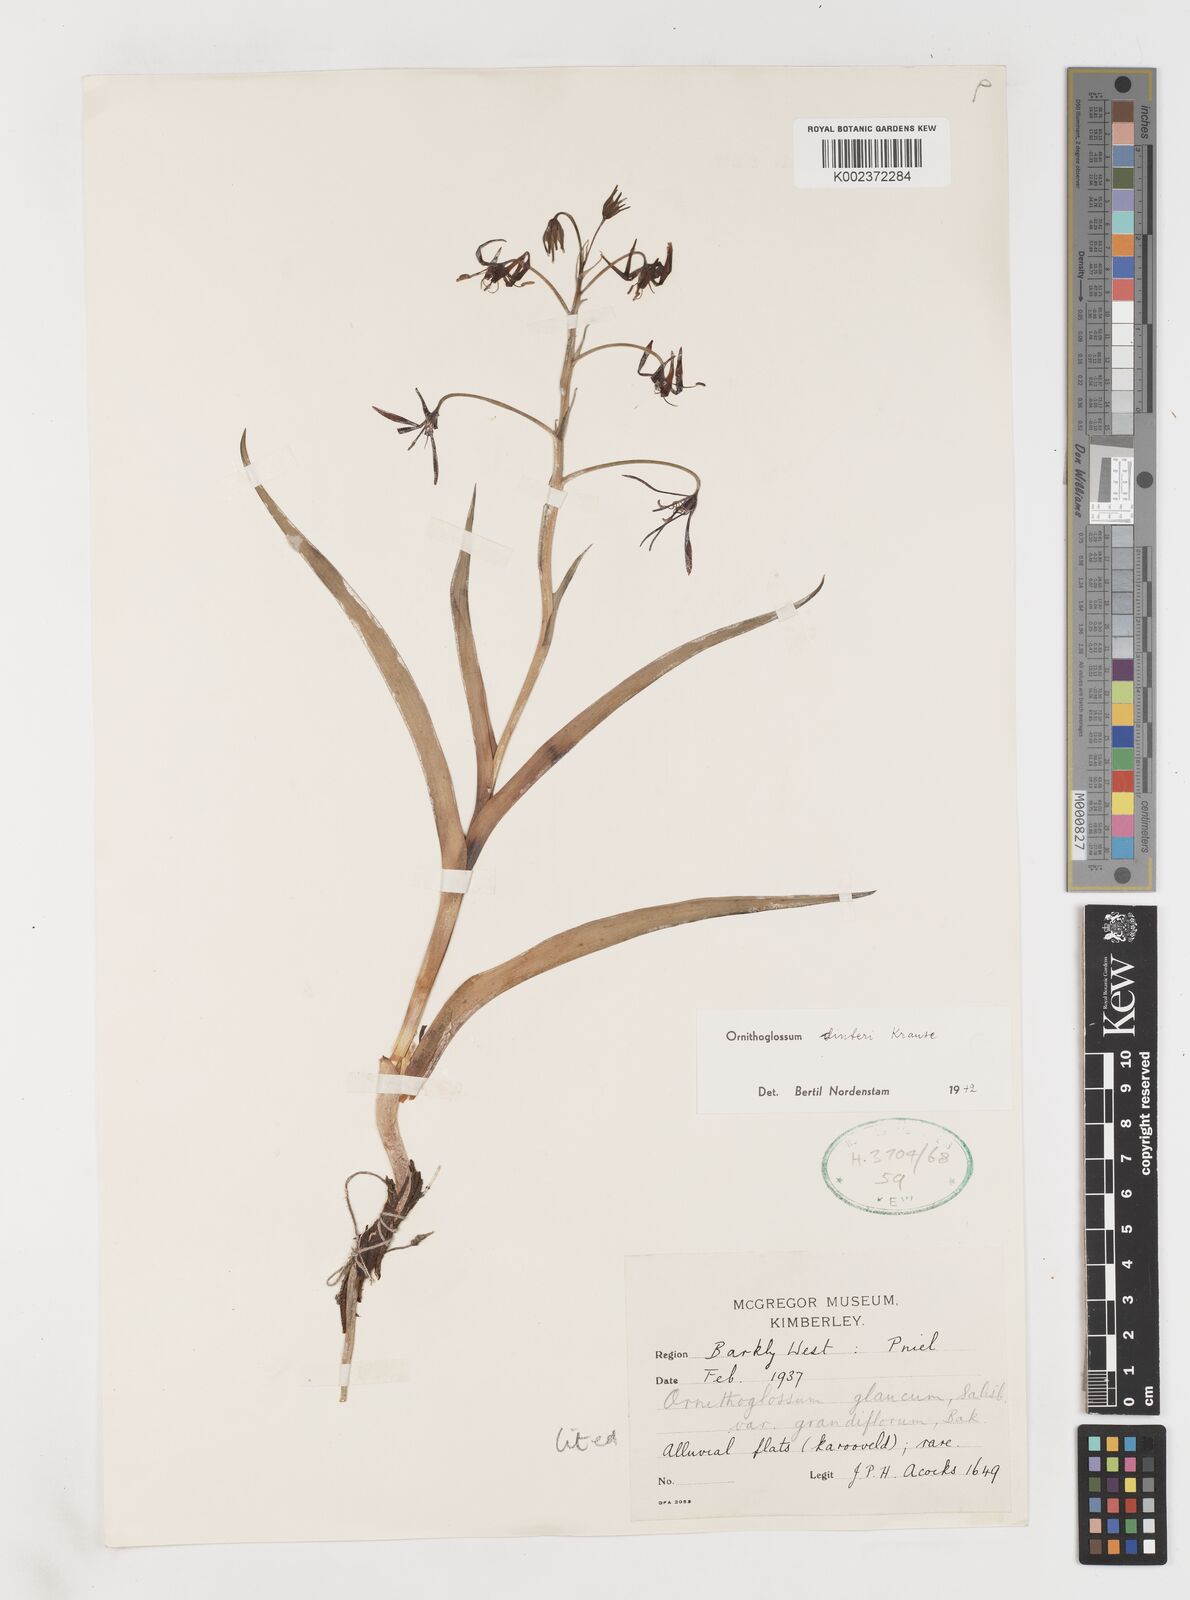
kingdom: Plantae
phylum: Tracheophyta
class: Liliopsida
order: Liliales
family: Colchicaceae
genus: Ornithoglossum
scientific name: Ornithoglossum dinteri
